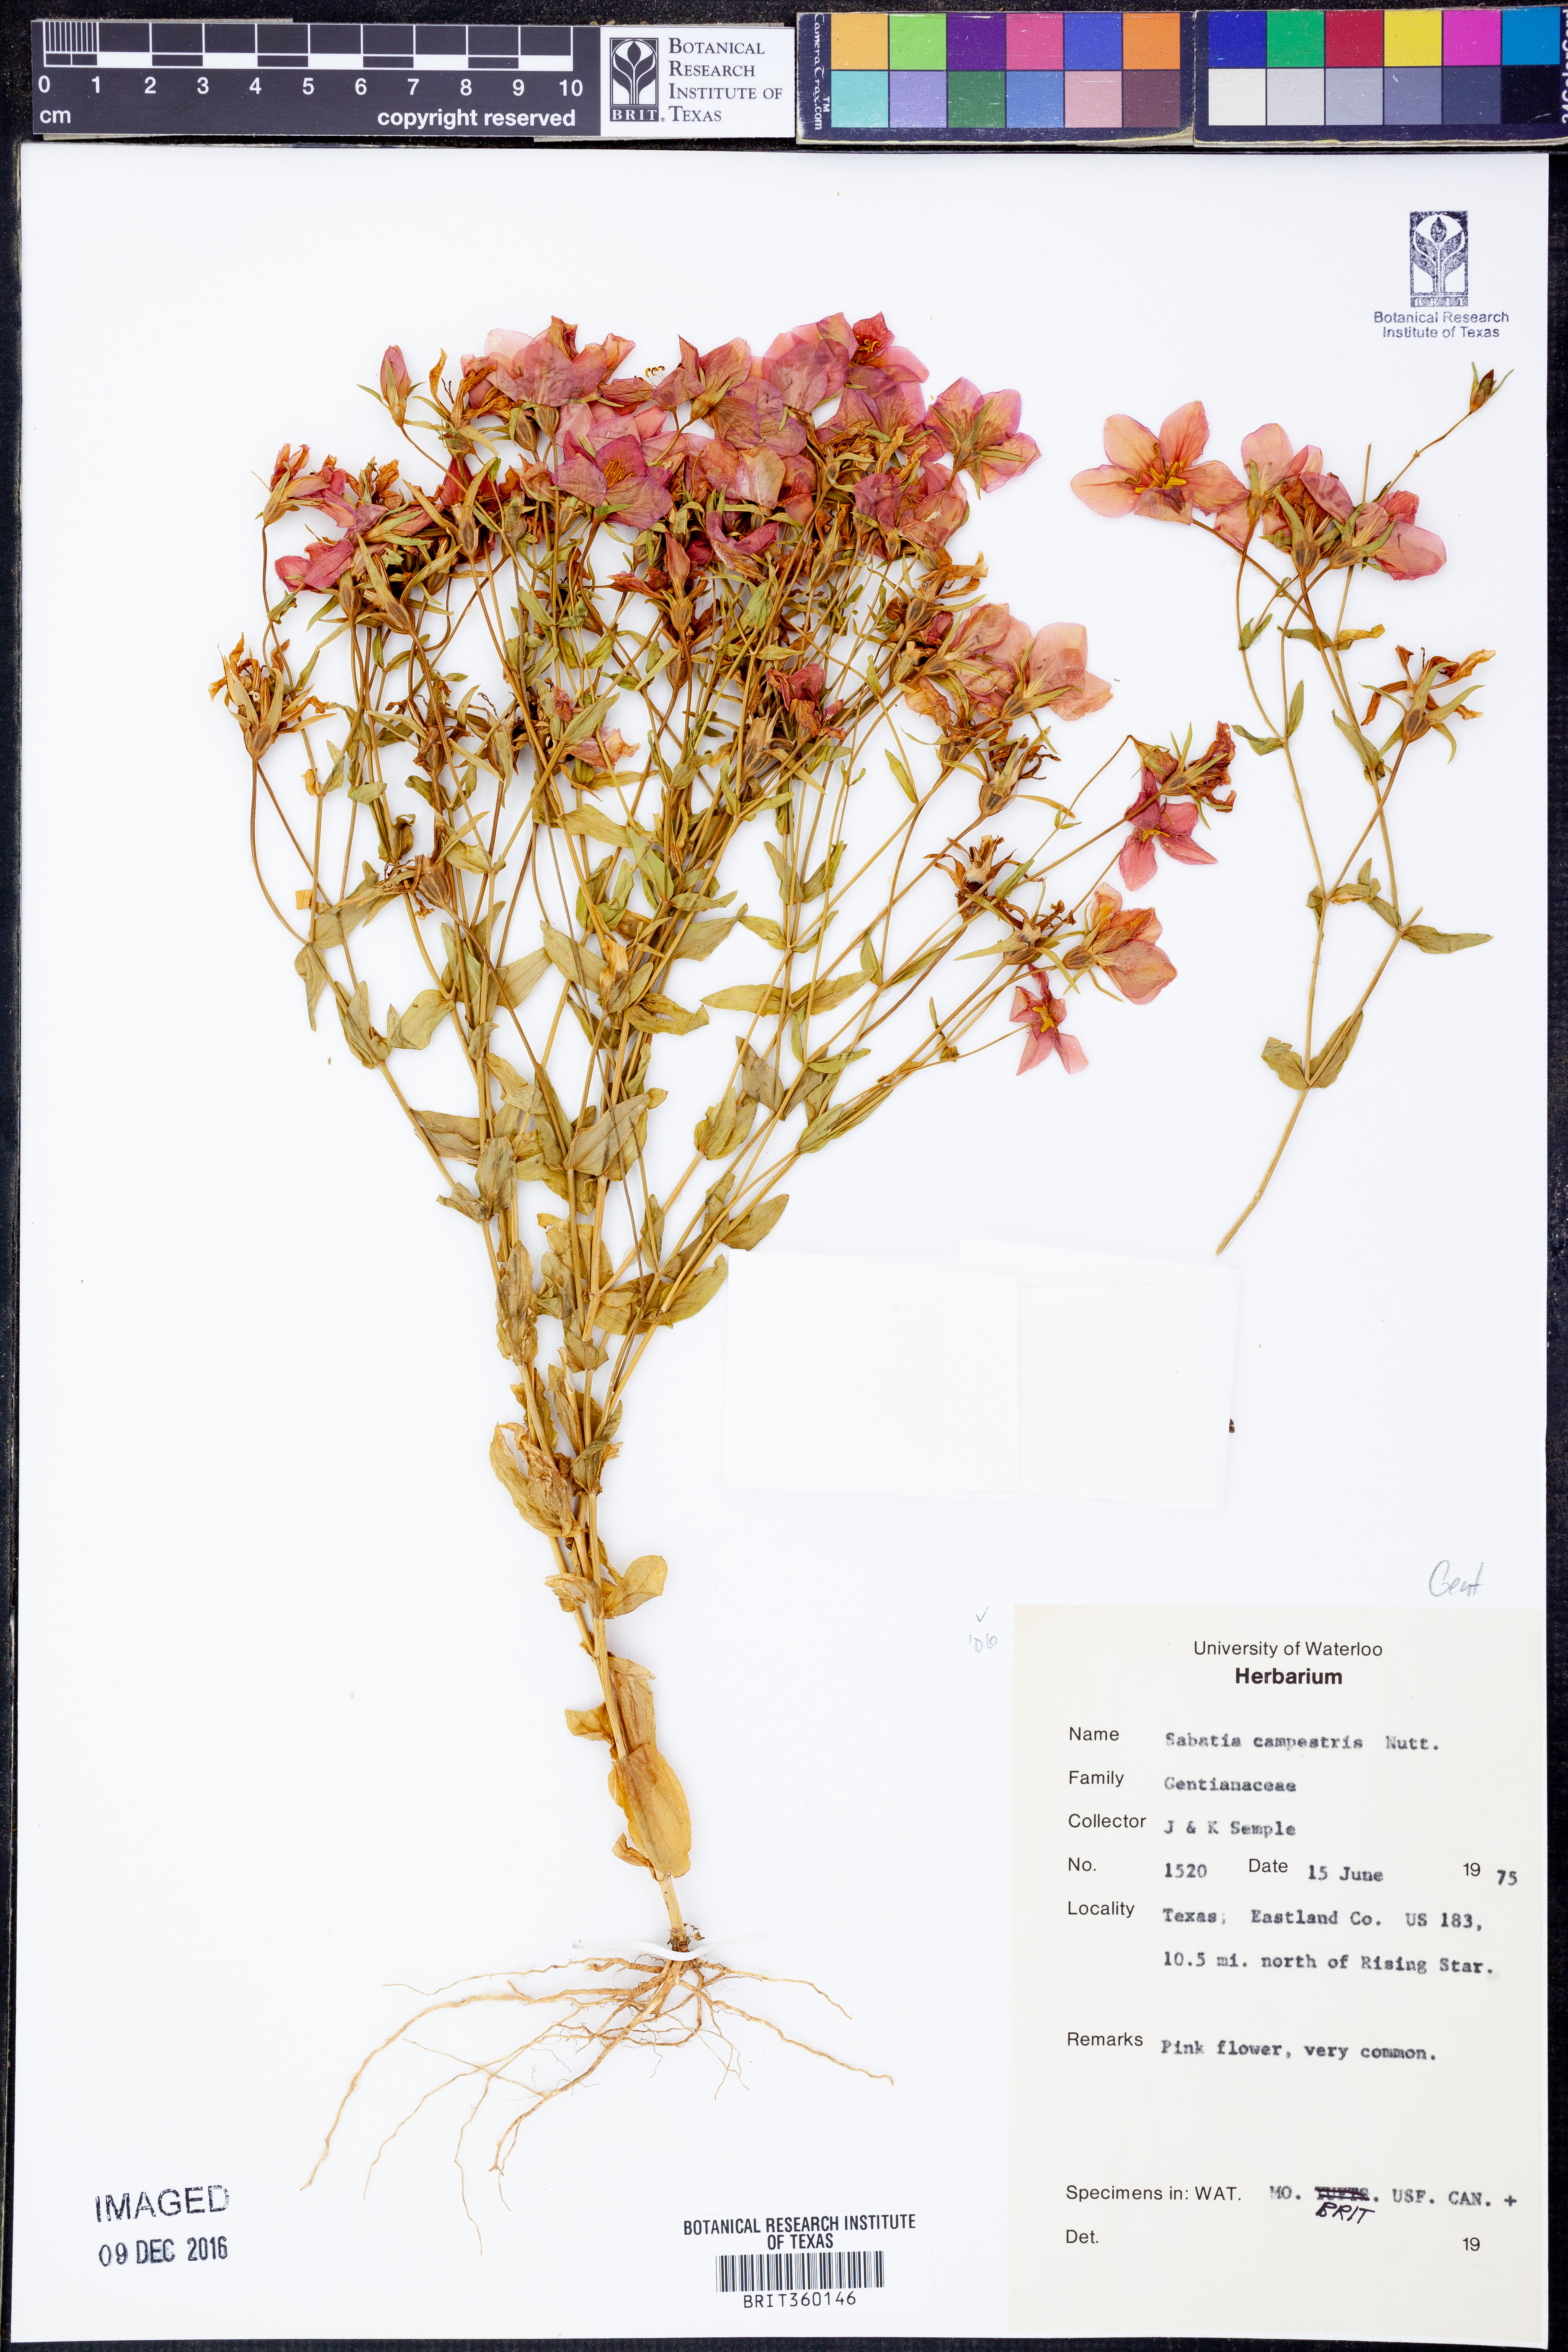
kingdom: Plantae
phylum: Tracheophyta
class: Magnoliopsida
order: Gentianales
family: Gentianaceae
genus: Sabatia
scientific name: Sabatia campestris
